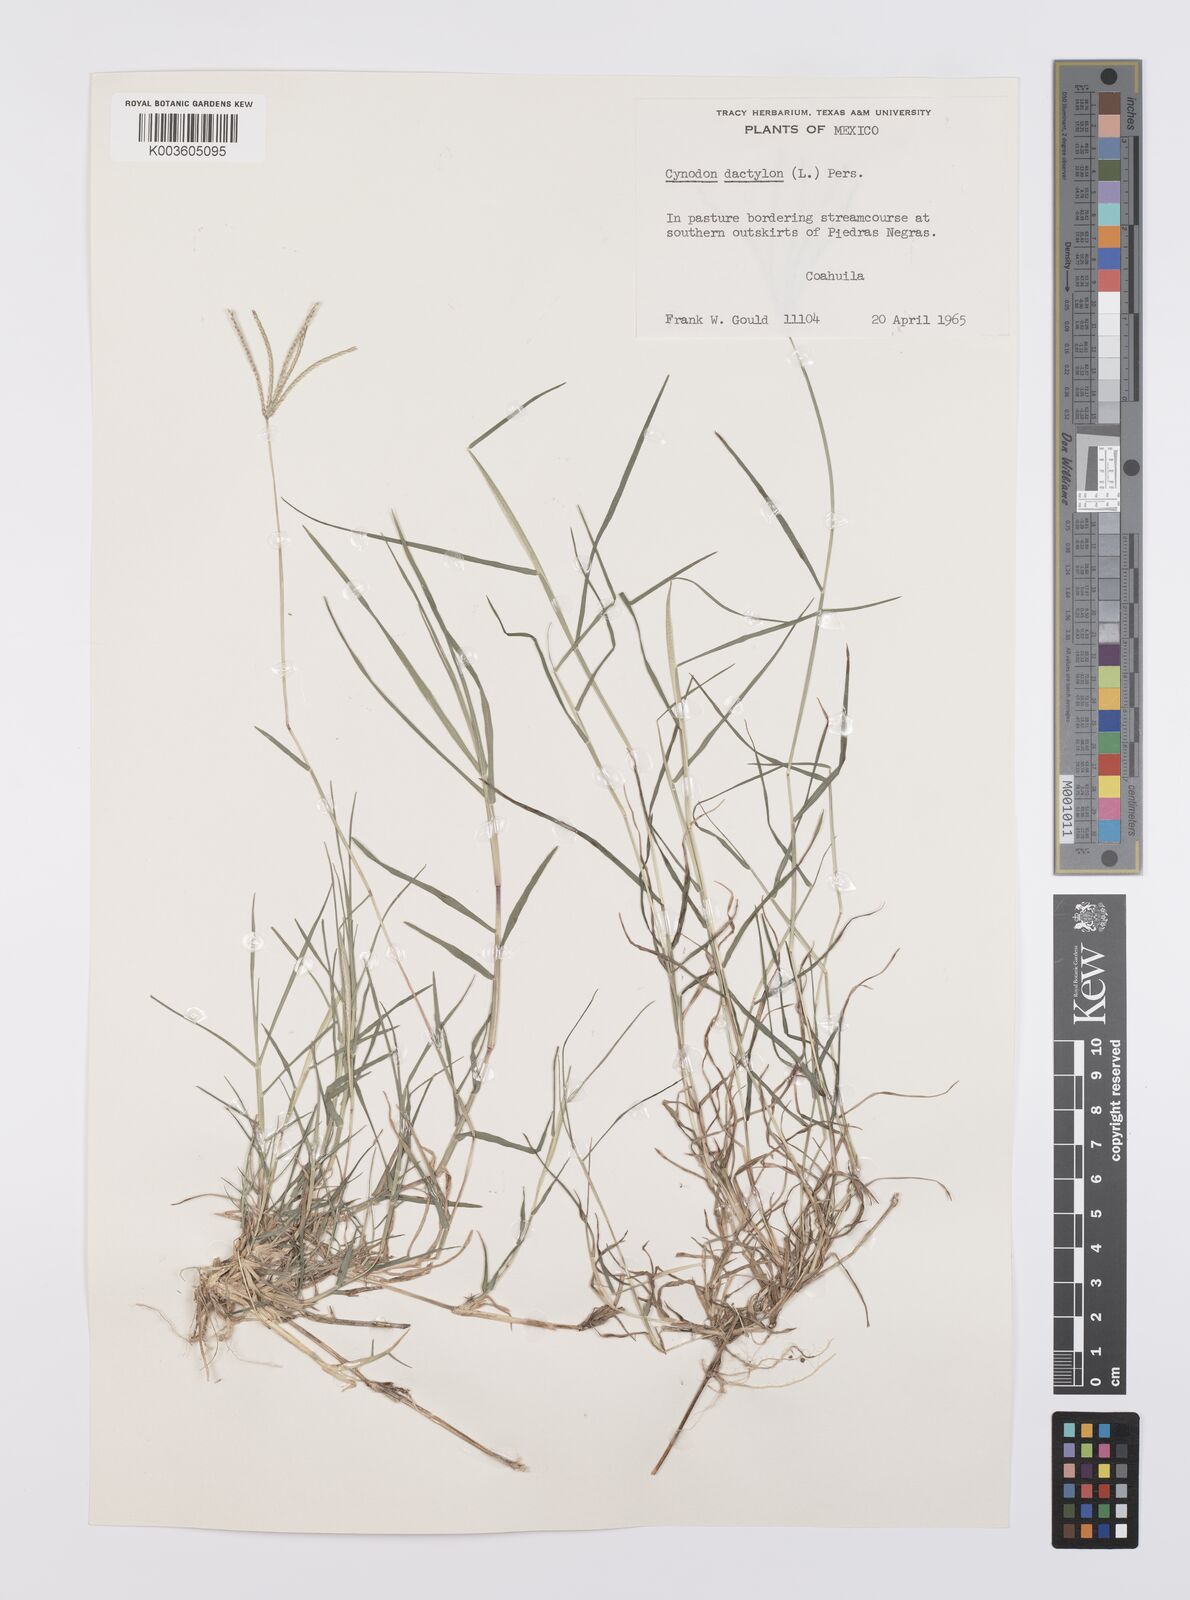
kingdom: Plantae
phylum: Tracheophyta
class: Liliopsida
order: Poales
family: Poaceae
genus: Cynodon
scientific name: Cynodon dactylon
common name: Bermuda grass
